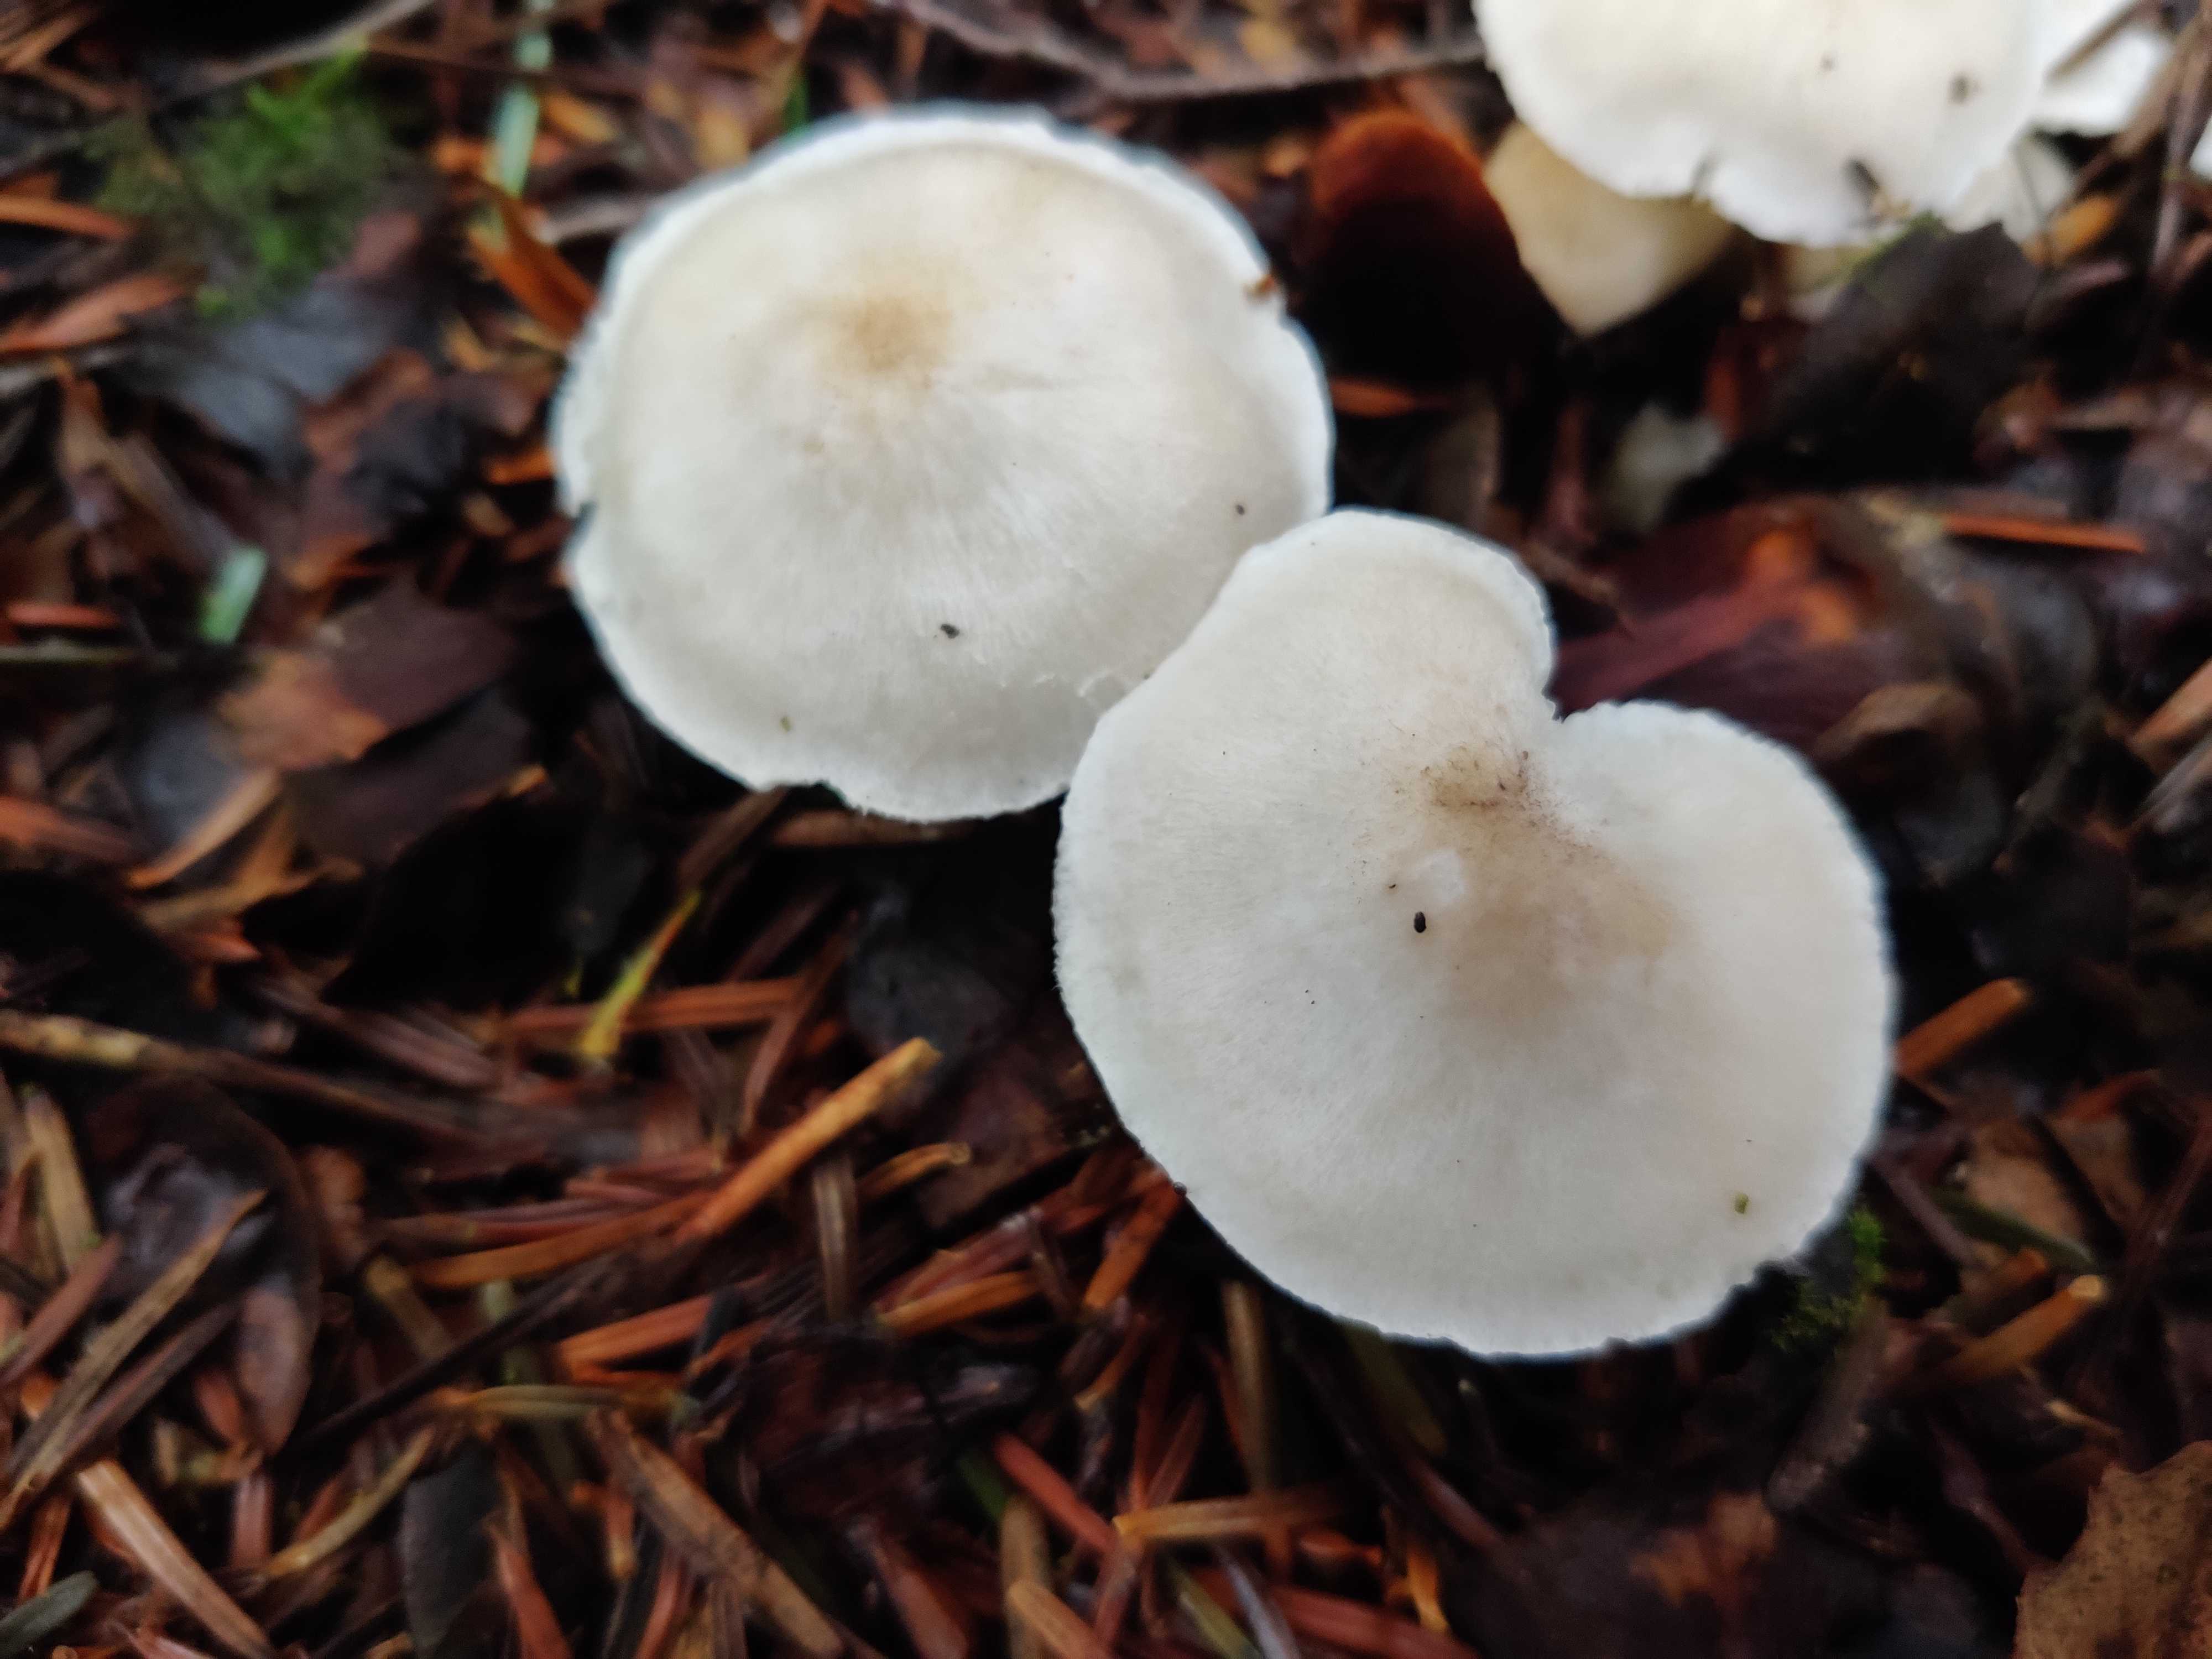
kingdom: Fungi
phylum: Basidiomycota
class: Agaricomycetes
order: Agaricales
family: Tricholomataceae
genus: Tricholoma
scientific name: Tricholoma argyraceum
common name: spids ridderhat
